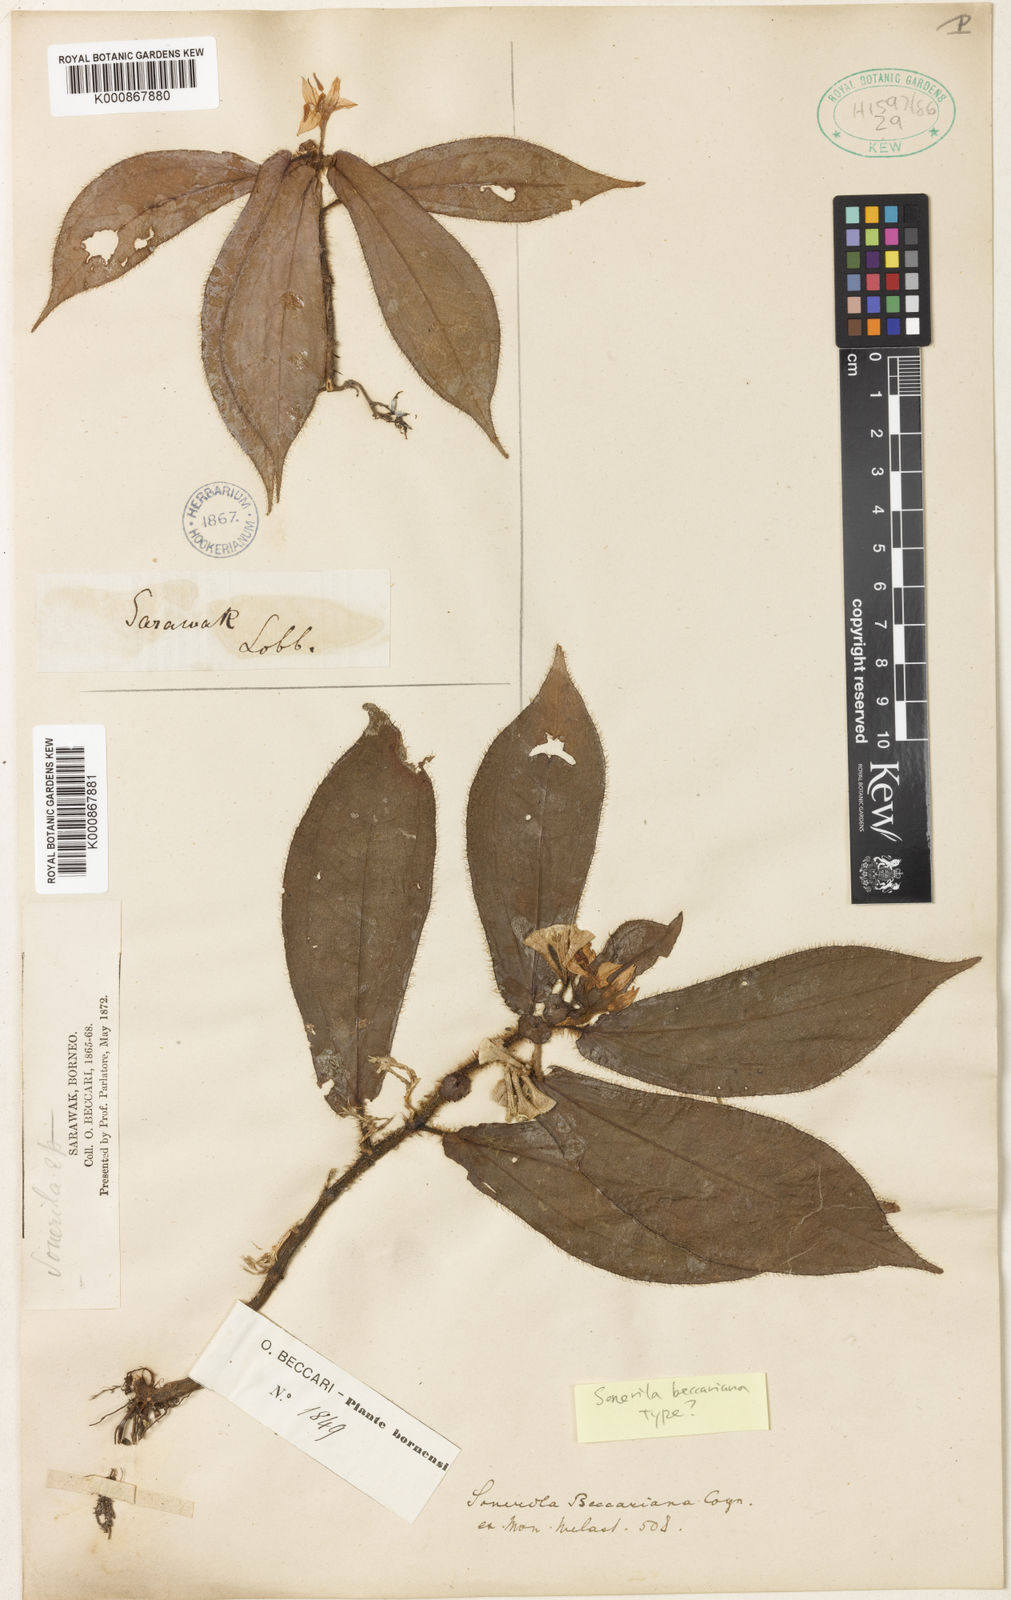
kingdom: Plantae
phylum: Tracheophyta
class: Magnoliopsida
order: Myrtales
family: Melastomataceae
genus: Sonerila
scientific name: Sonerila beccariana
